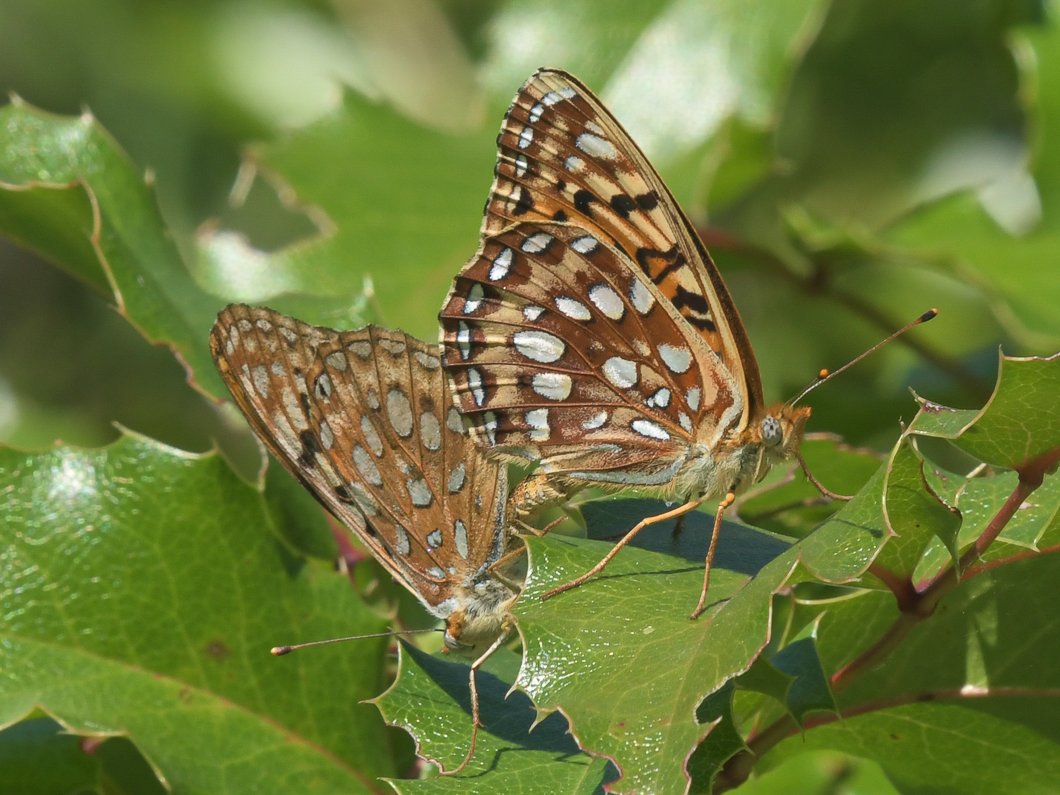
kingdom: Animalia
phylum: Arthropoda
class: Insecta
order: Lepidoptera
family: Nymphalidae
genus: Speyeria
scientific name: Speyeria atlantis
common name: Northwestern Fritillary
